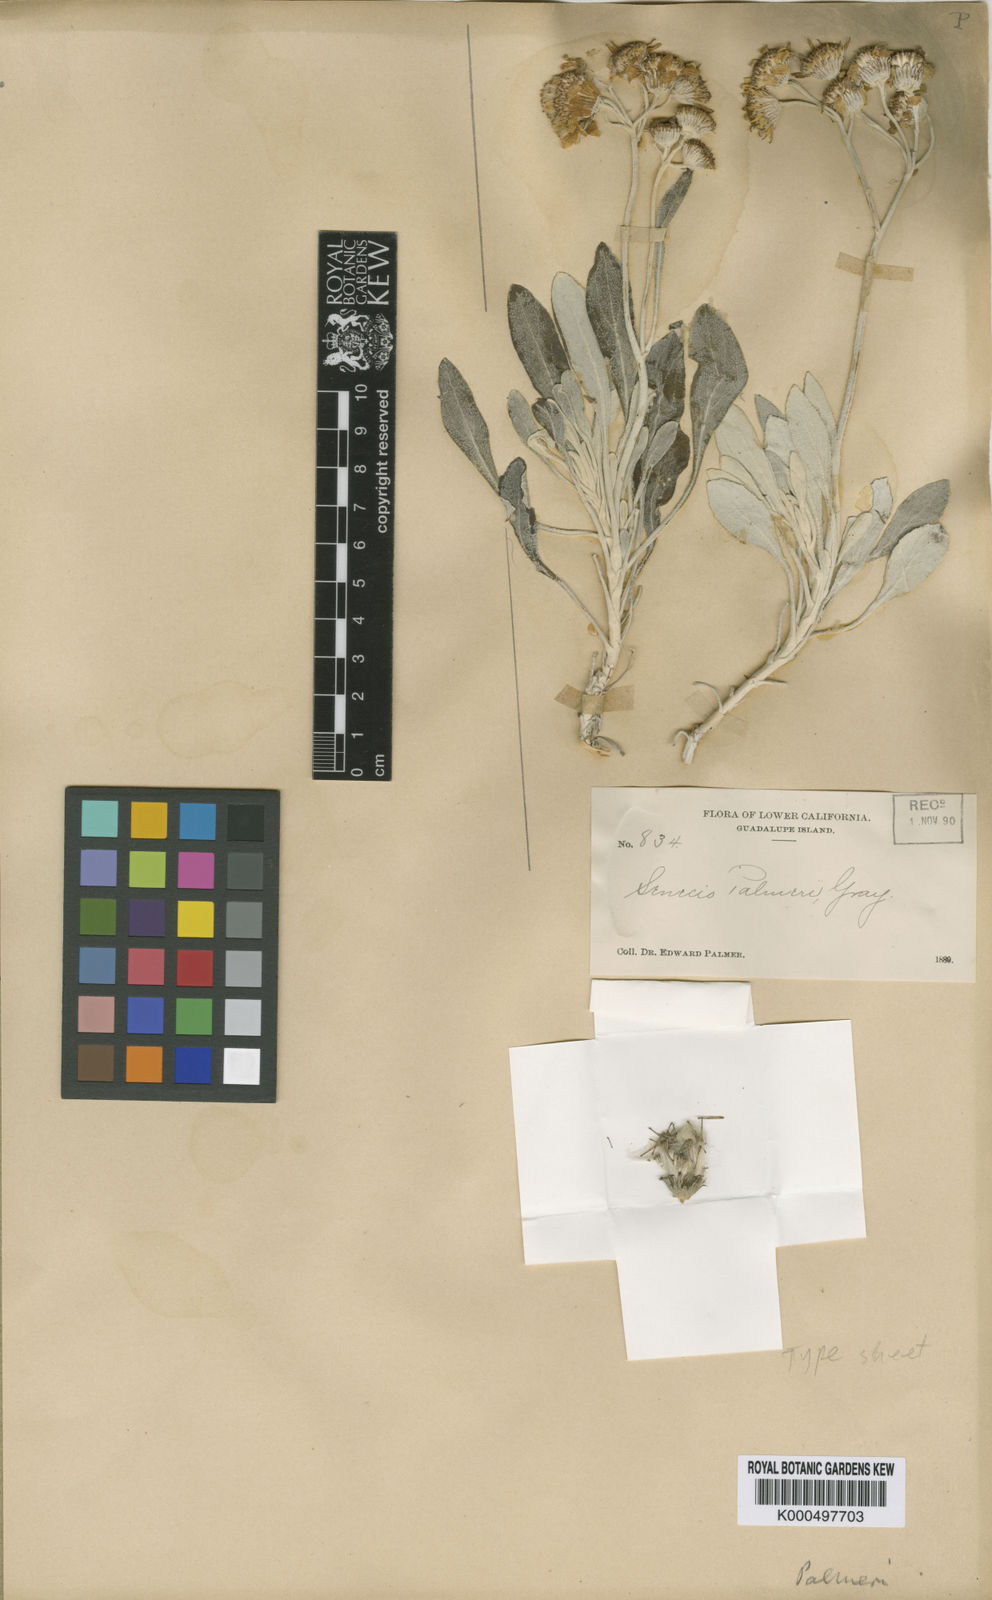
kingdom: Plantae
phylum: Tracheophyta
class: Magnoliopsida
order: Asterales
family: Asteraceae
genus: Lepidospartum
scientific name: Lepidospartum squamatum
